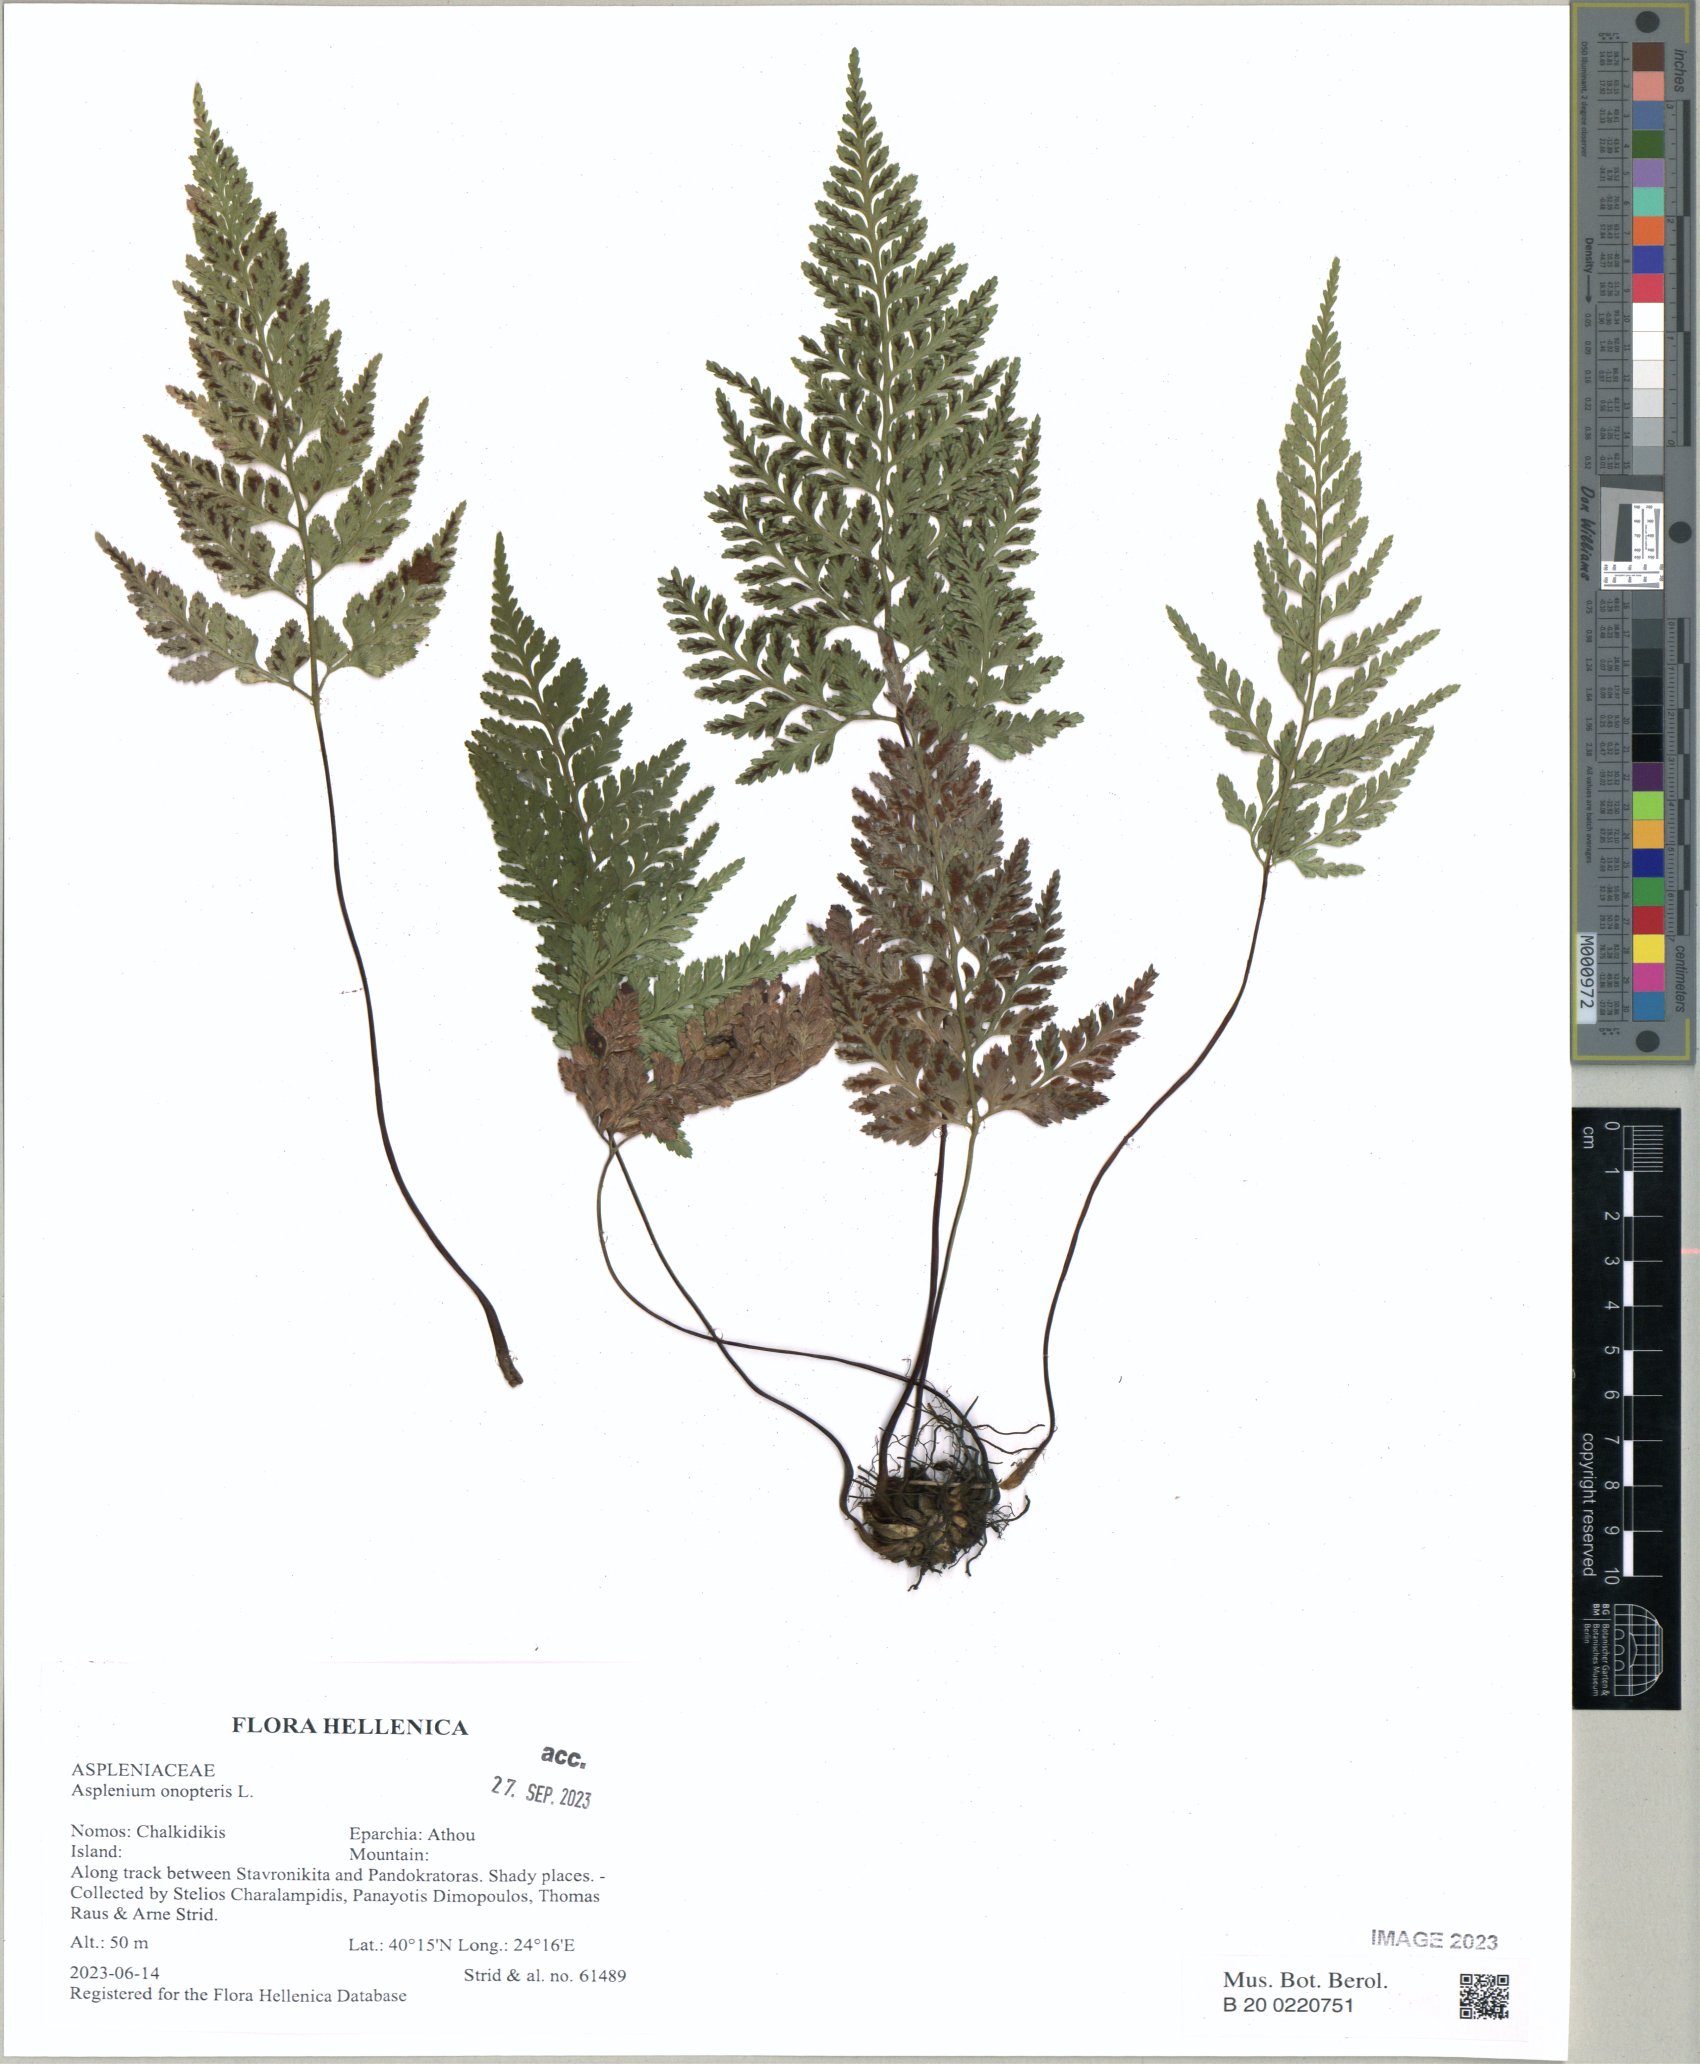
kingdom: Plantae
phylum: Tracheophyta
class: Polypodiopsida
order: Polypodiales
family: Aspleniaceae
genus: Asplenium
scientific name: Asplenium onopteris
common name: Irish spleenwort
